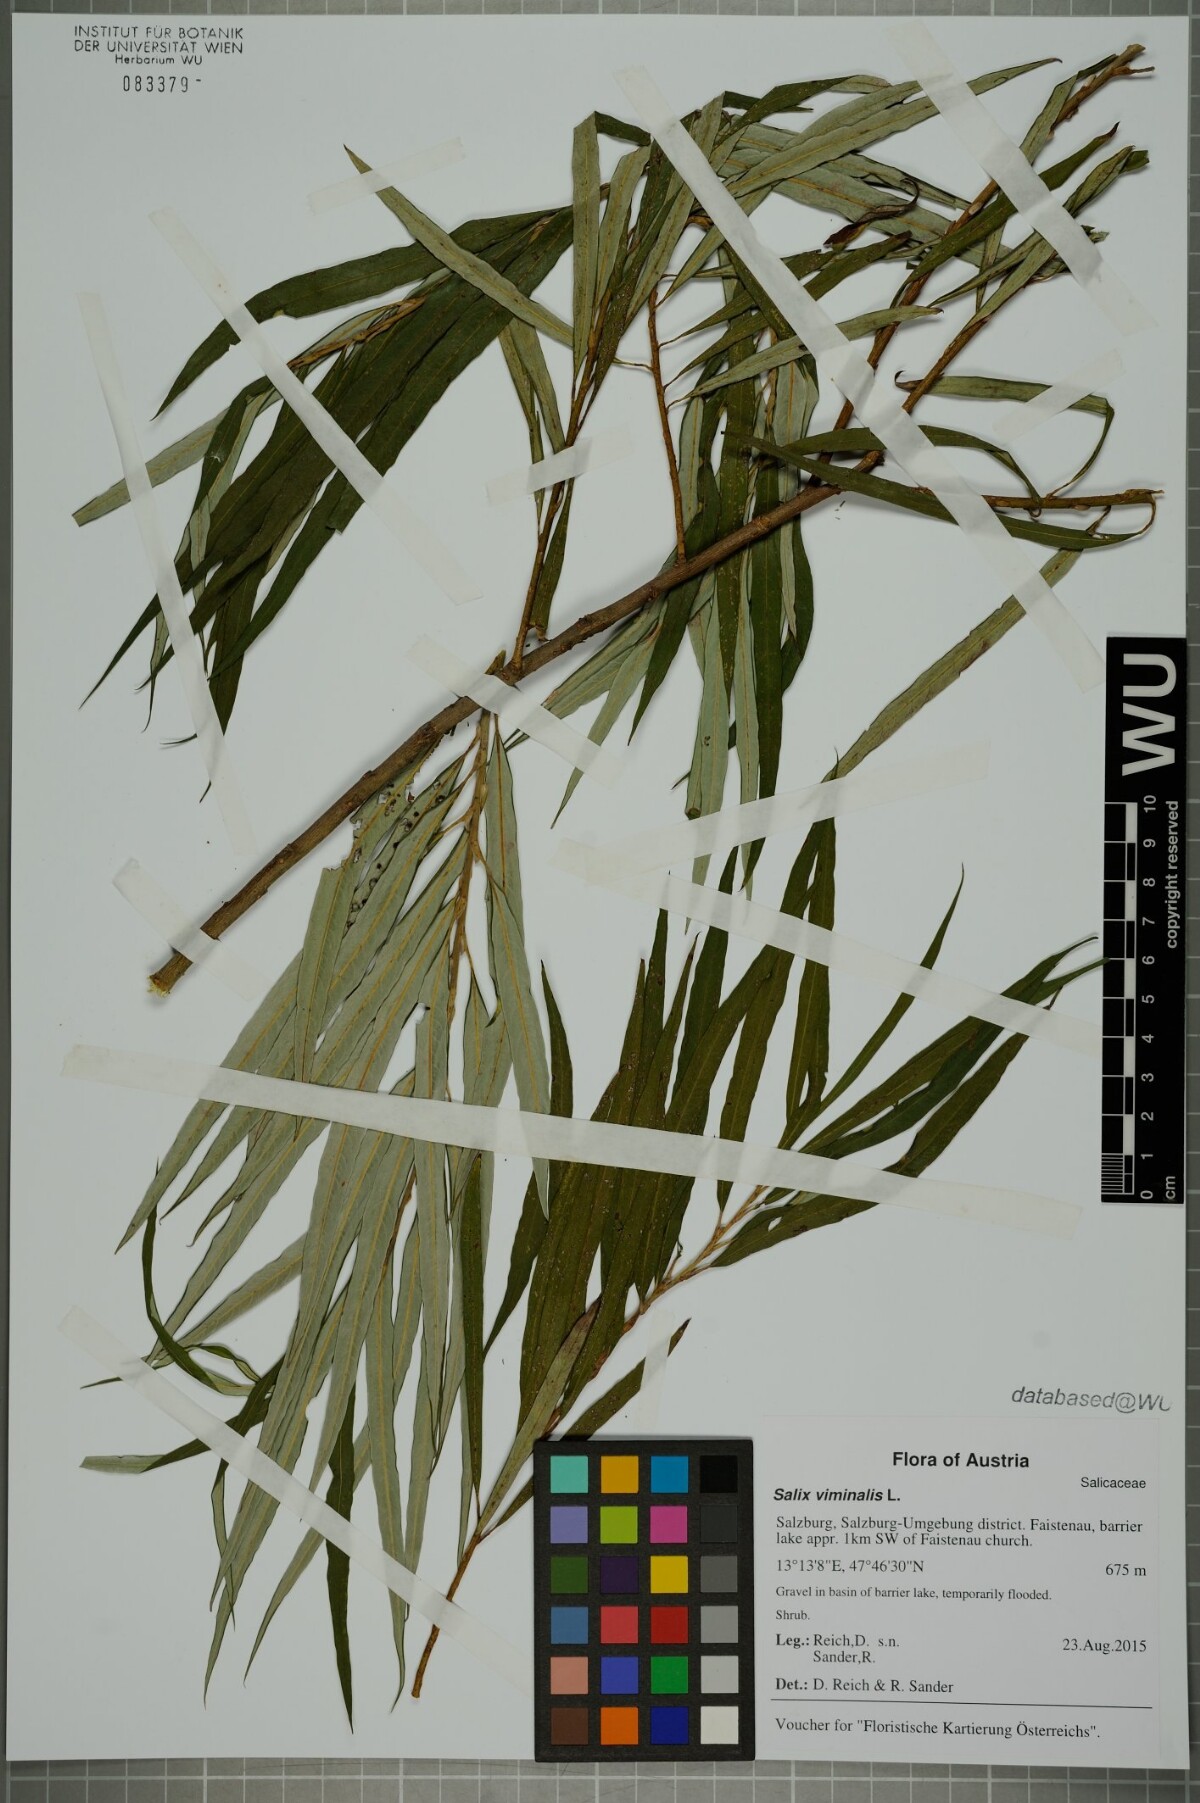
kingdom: Plantae
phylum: Tracheophyta
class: Magnoliopsida
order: Malpighiales
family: Salicaceae
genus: Salix
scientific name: Salix viminalis
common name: Osier
